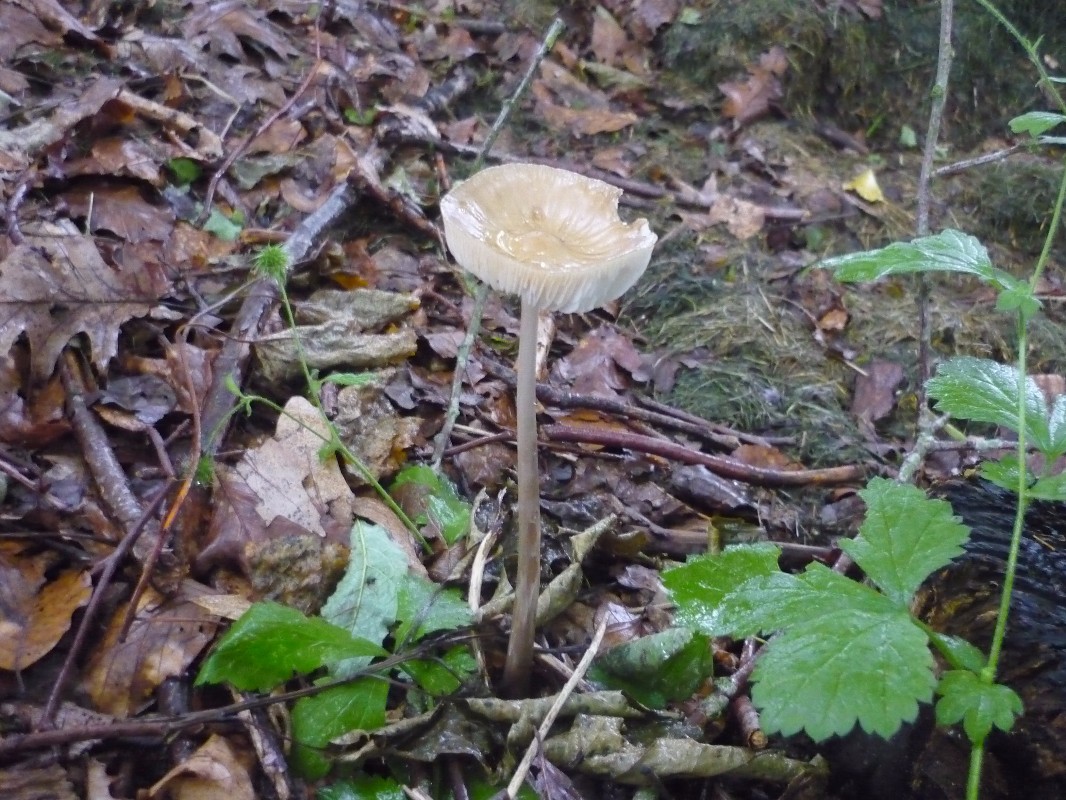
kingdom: Fungi
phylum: Basidiomycota
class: Agaricomycetes
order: Agaricales
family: Physalacriaceae
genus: Hymenopellis
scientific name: Hymenopellis radicata
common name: almindelig pælerodshat
